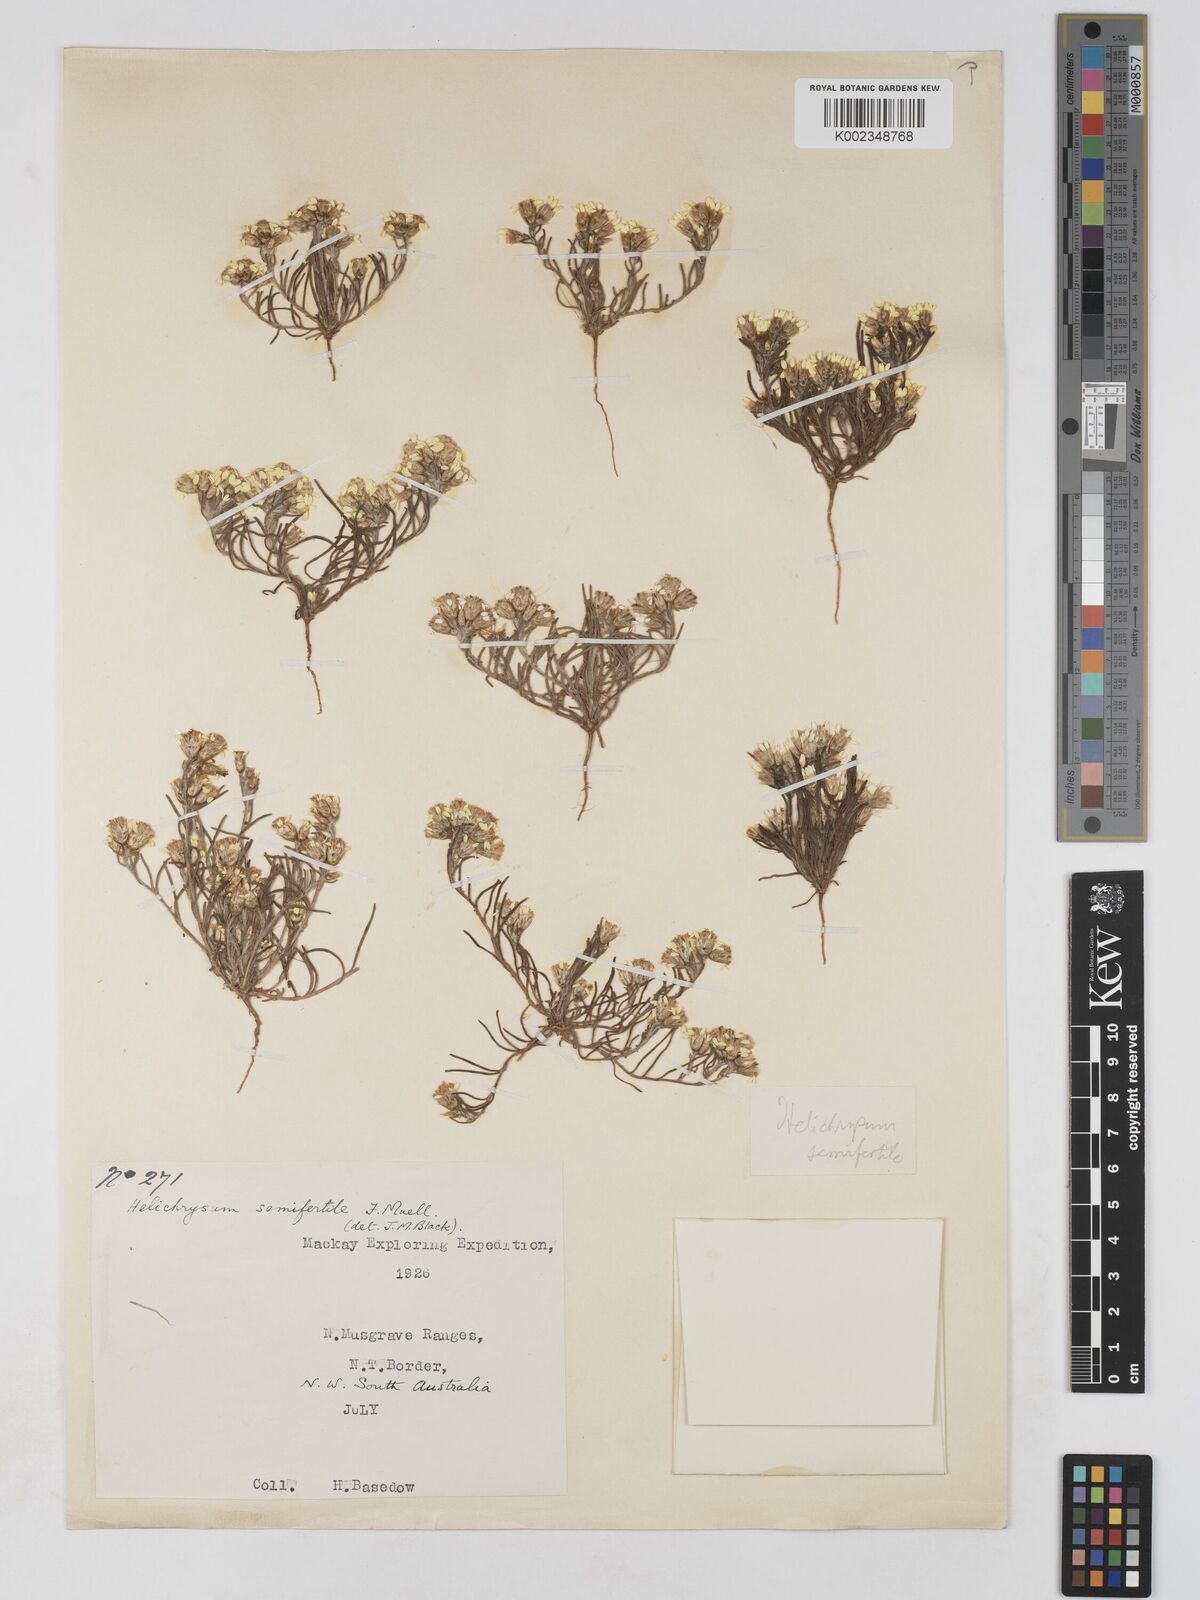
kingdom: Plantae
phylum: Tracheophyta
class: Magnoliopsida
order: Asterales
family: Asteraceae
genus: Schoenia
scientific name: Schoenia ramosissima
